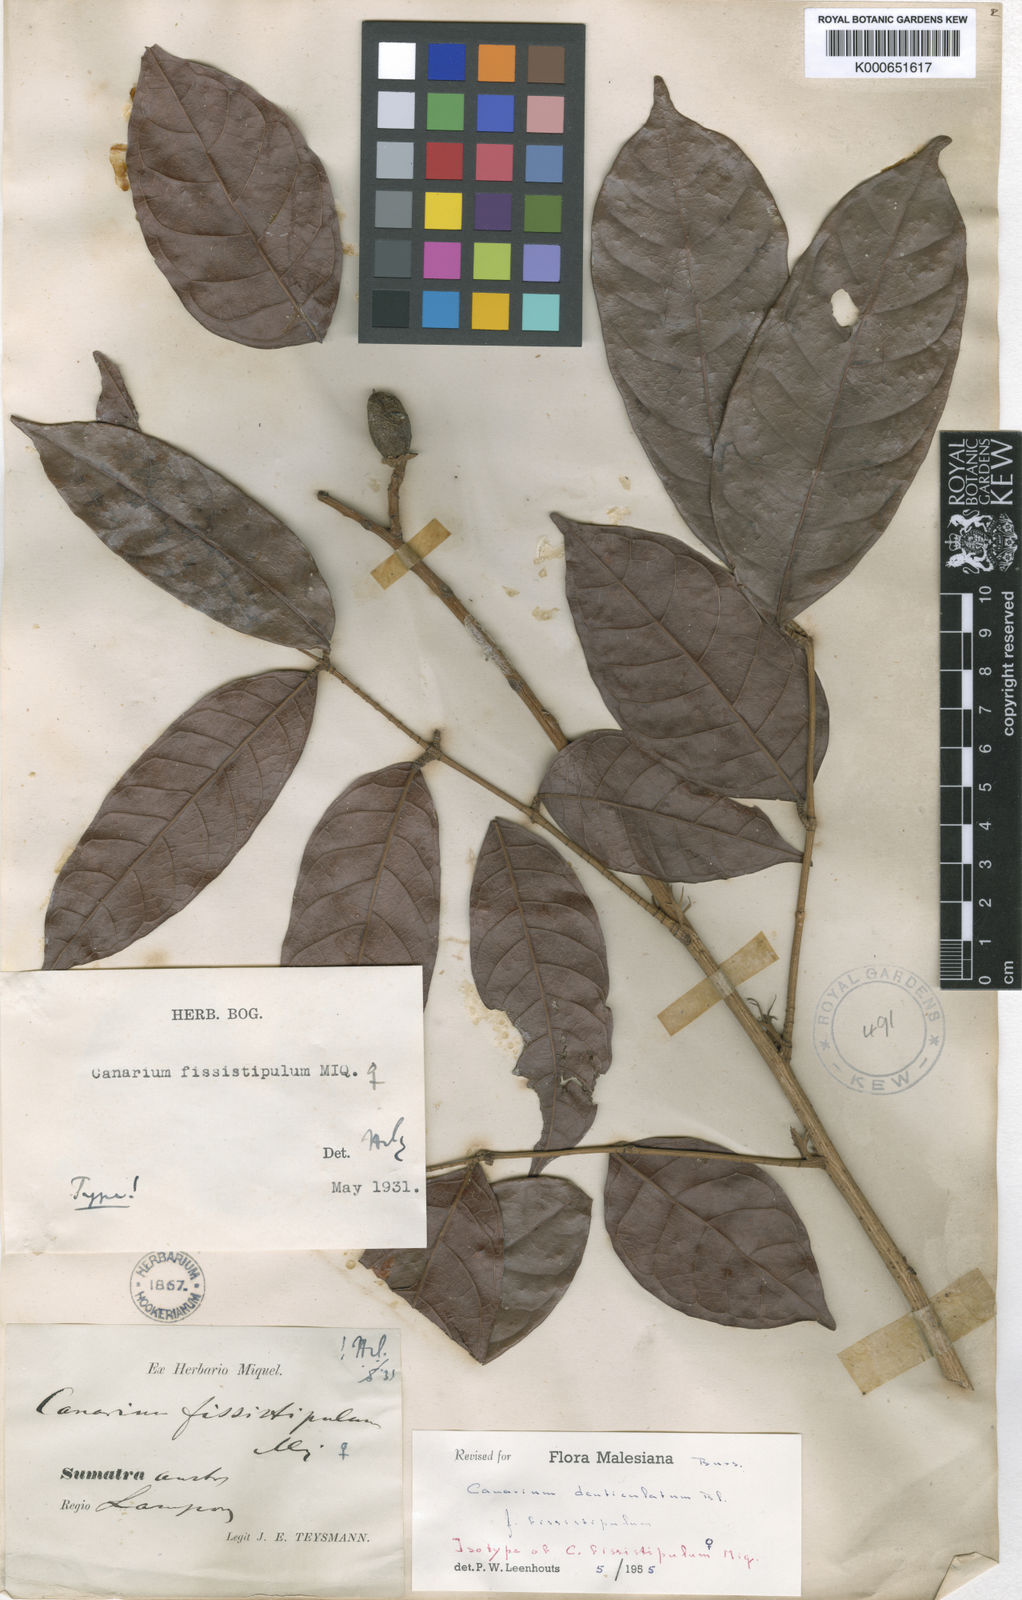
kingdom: Plantae
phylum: Tracheophyta
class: Magnoliopsida
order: Sapindales
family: Burseraceae
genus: Canarium
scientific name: Canarium denticulatum
